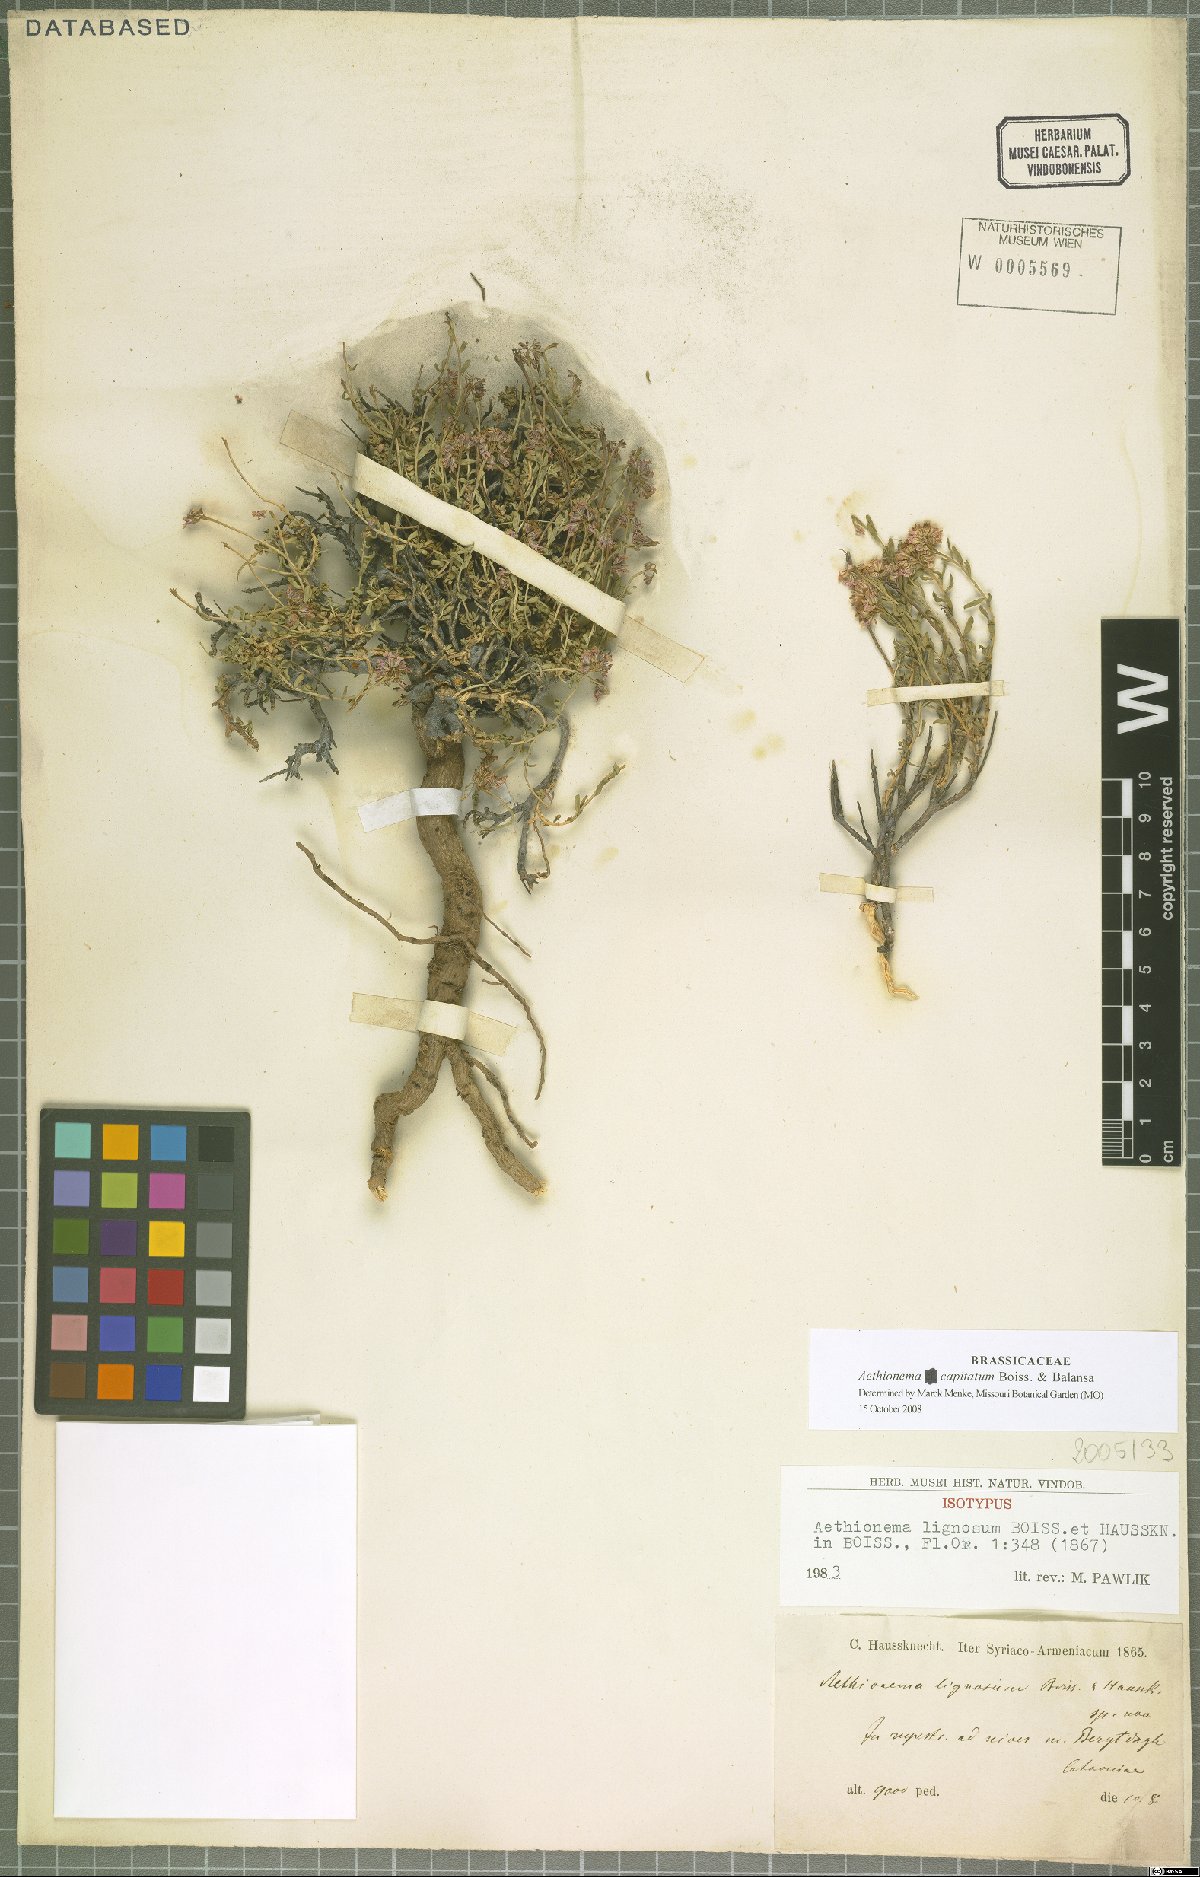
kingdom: Plantae
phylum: Tracheophyta
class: Magnoliopsida
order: Brassicales
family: Brassicaceae
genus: Aethionema
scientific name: Aethionema capitatum
